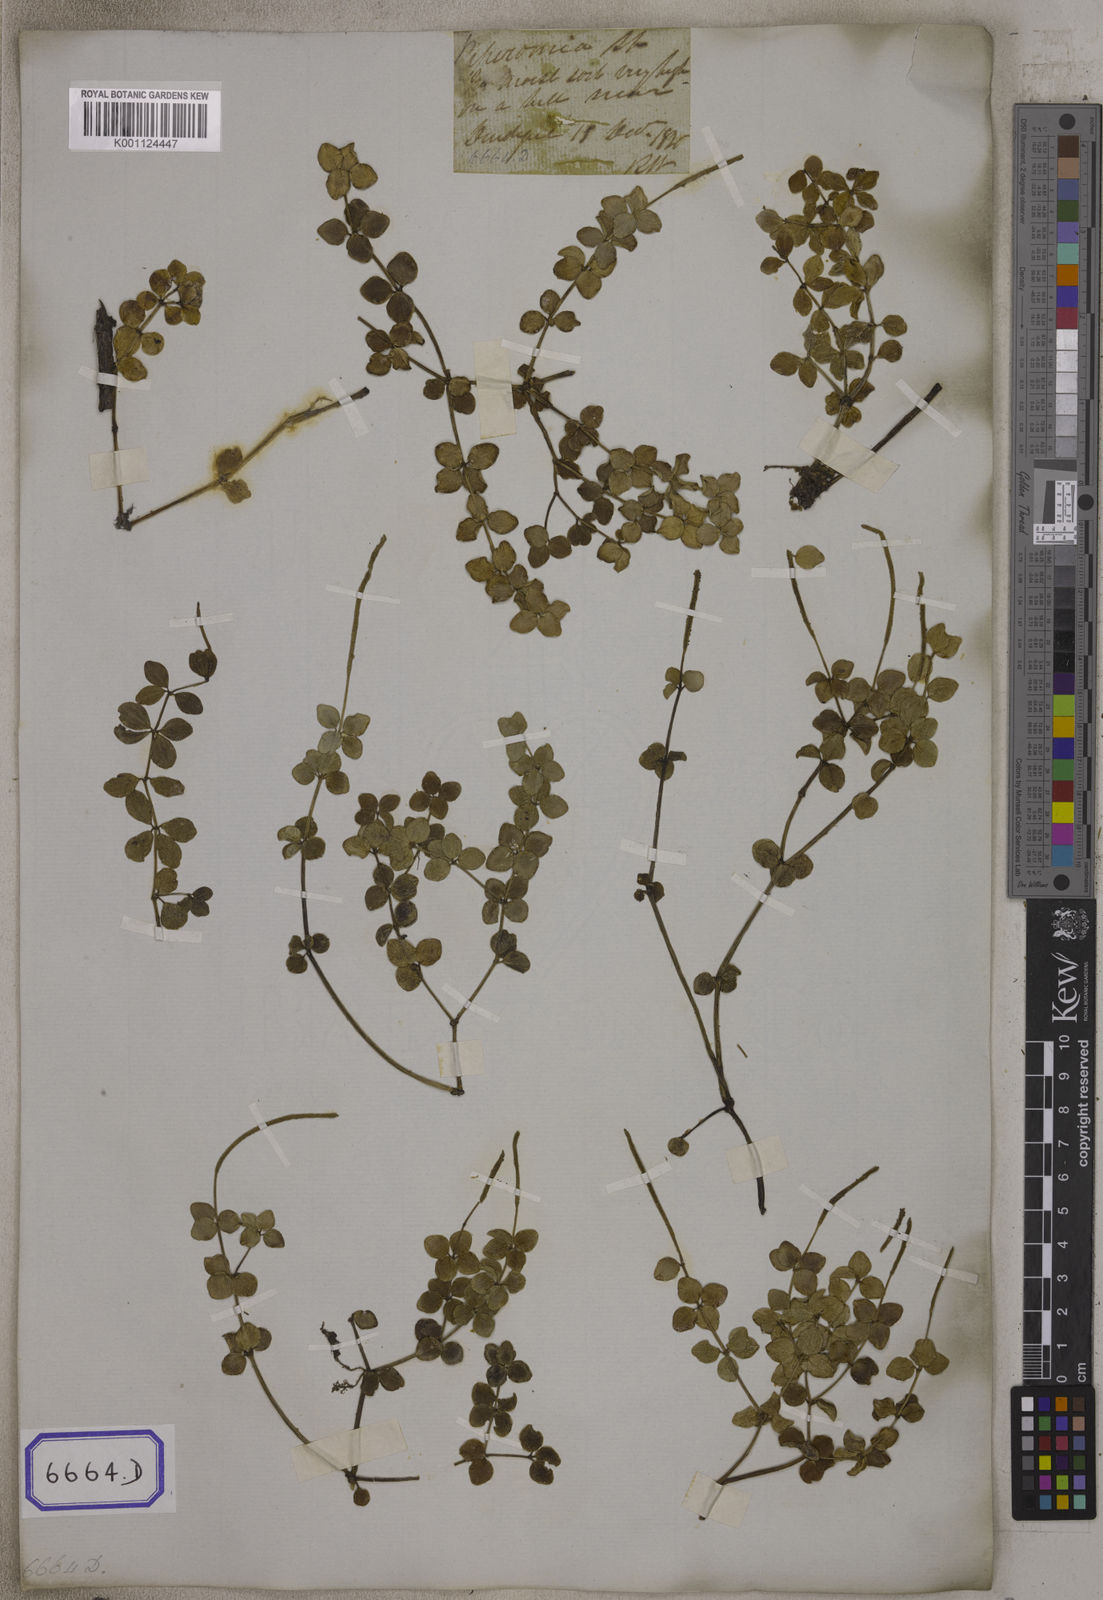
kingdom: Plantae
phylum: Tracheophyta
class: Magnoliopsida
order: Piperales
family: Piperaceae
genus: Peperomia
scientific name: Peperomia tetraphylla
